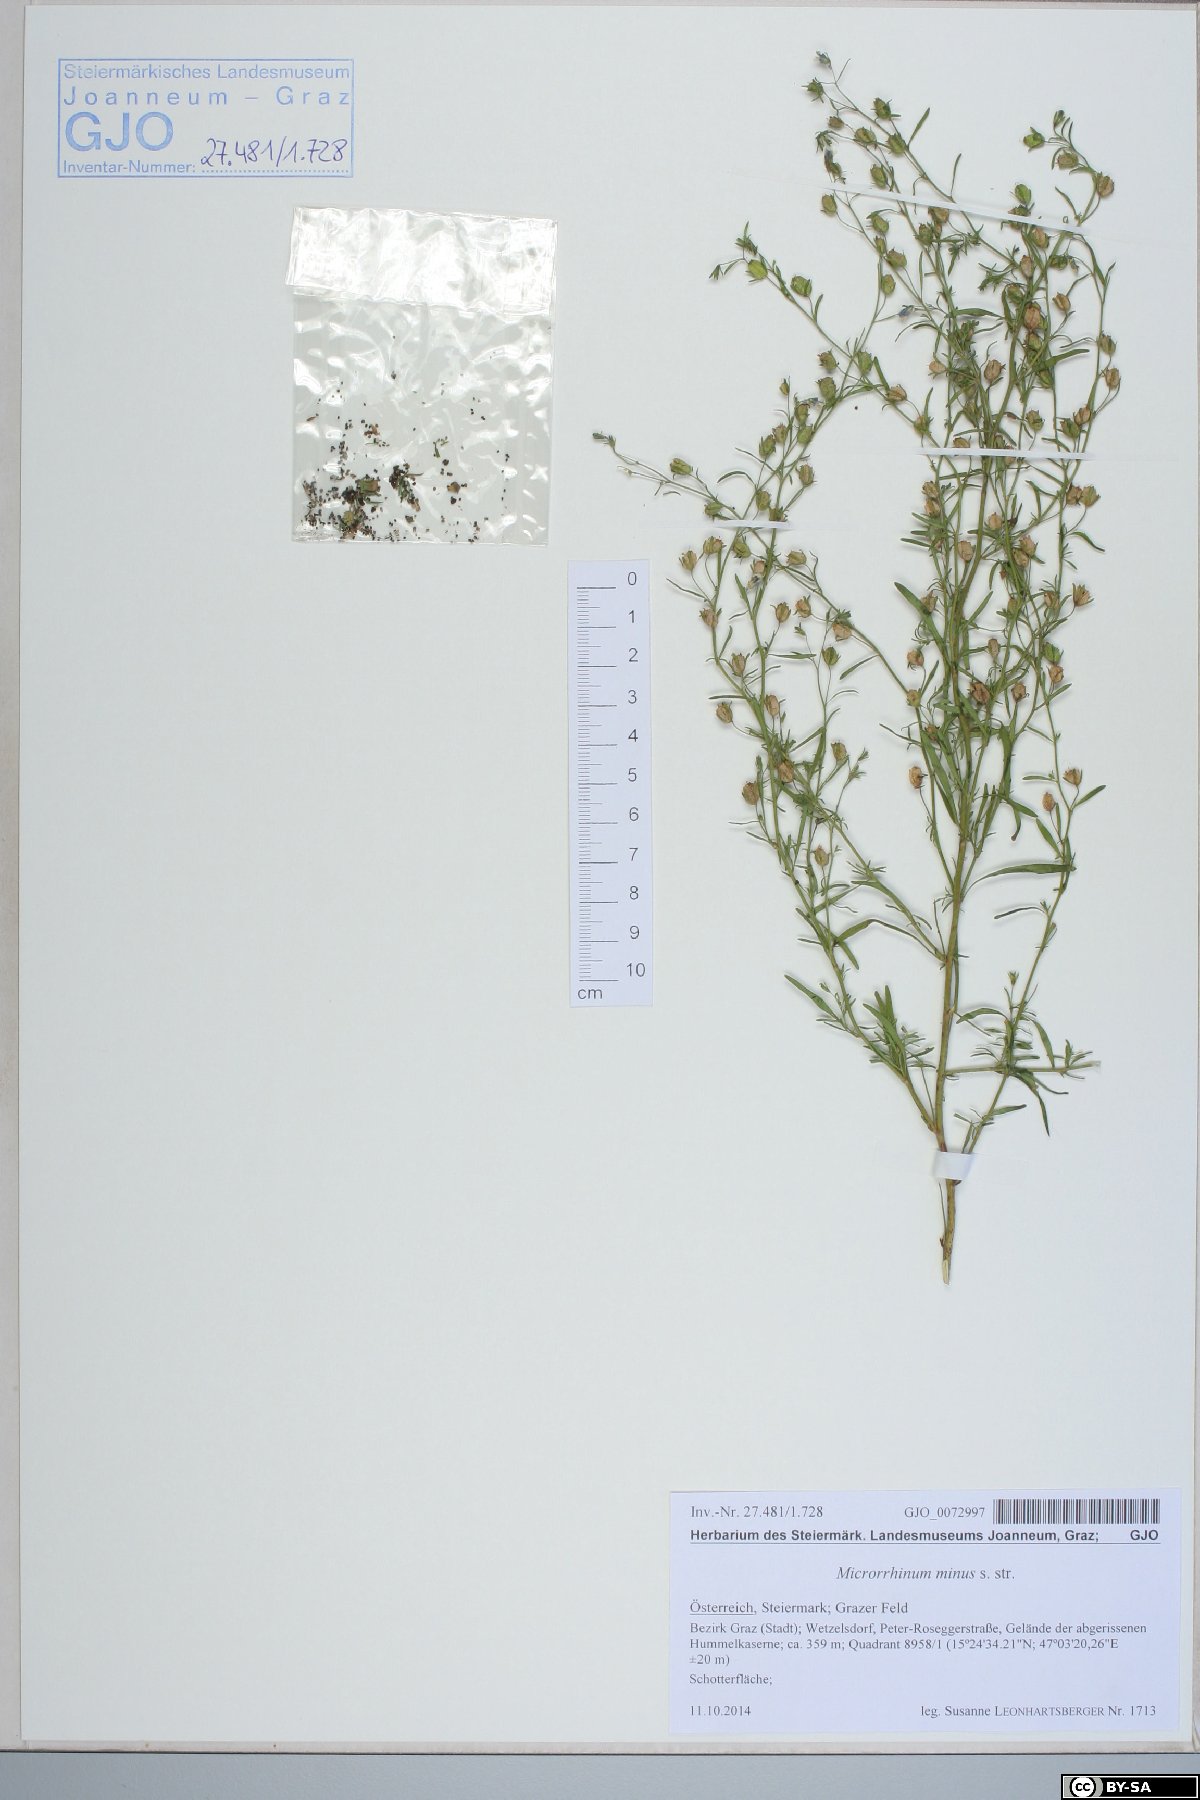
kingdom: Plantae
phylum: Tracheophyta
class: Magnoliopsida
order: Lamiales
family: Plantaginaceae
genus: Chaenorhinum
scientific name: Chaenorhinum minus
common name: Dwarf snapdragon
